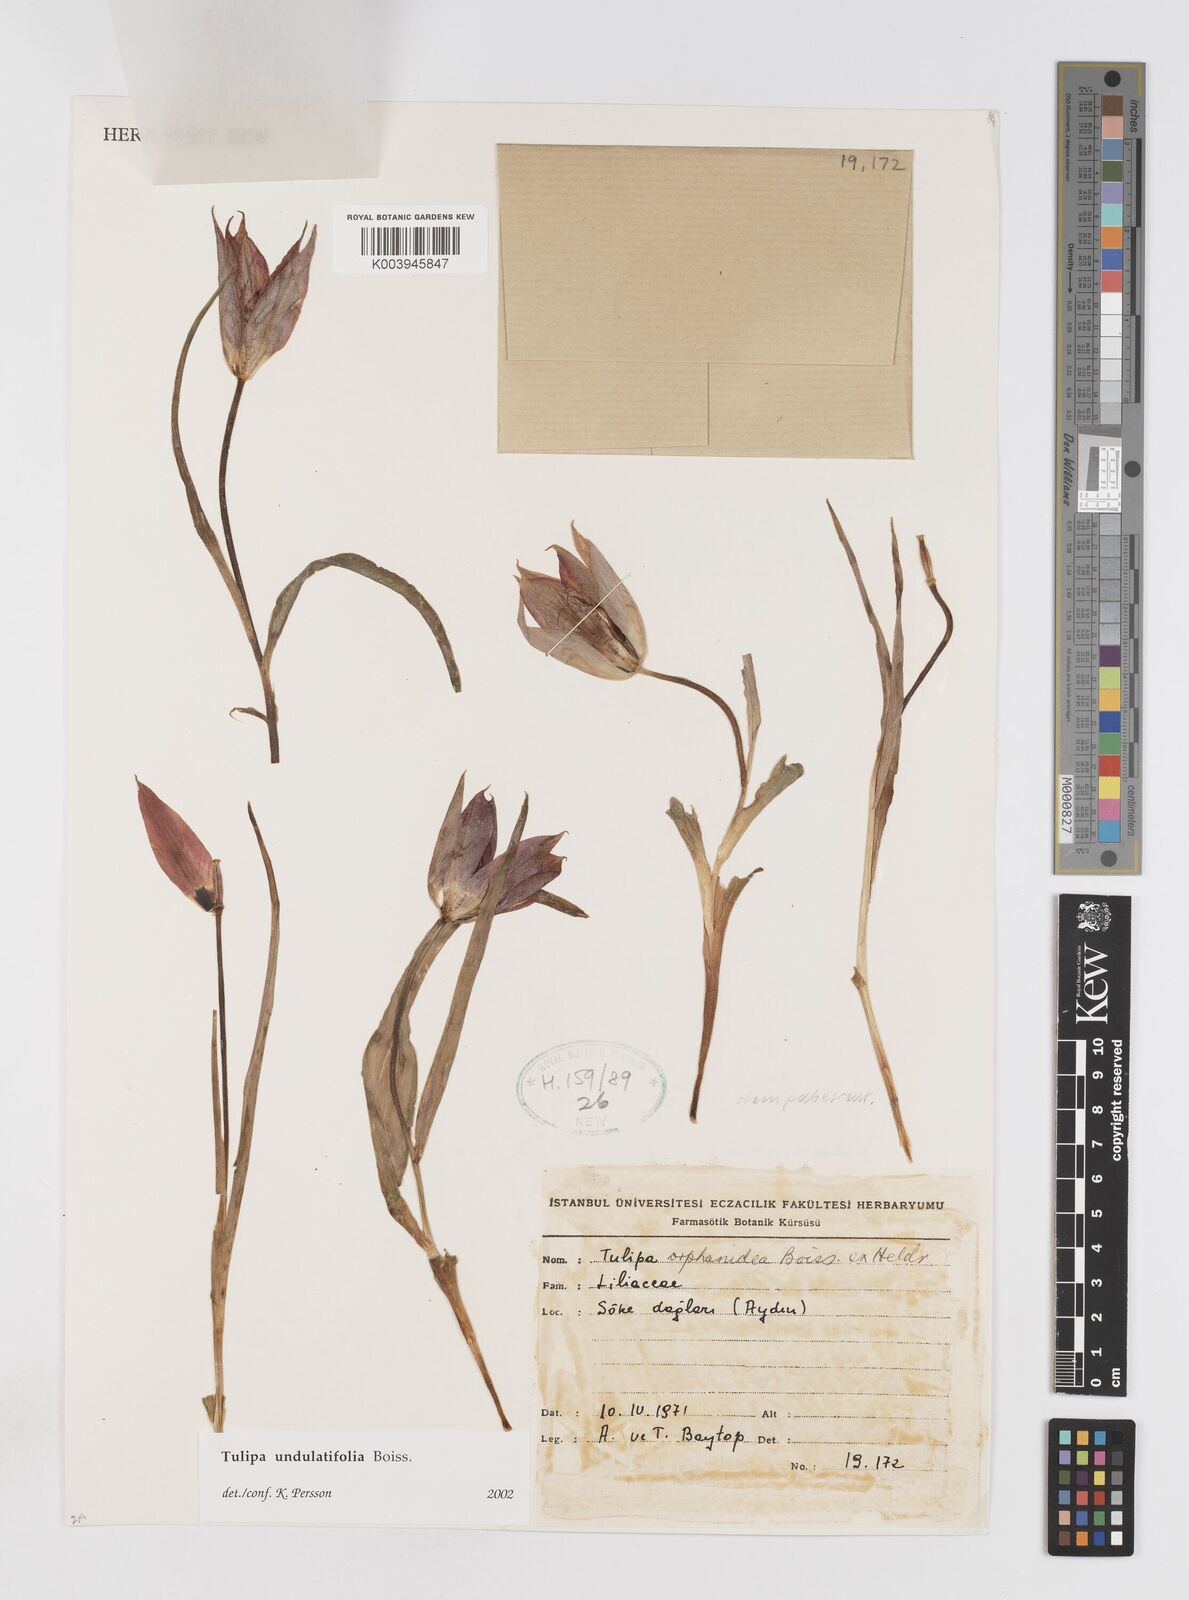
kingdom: Plantae
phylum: Tracheophyta
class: Liliopsida
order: Liliales
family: Liliaceae
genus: Tulipa
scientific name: Tulipa undulatifolia
